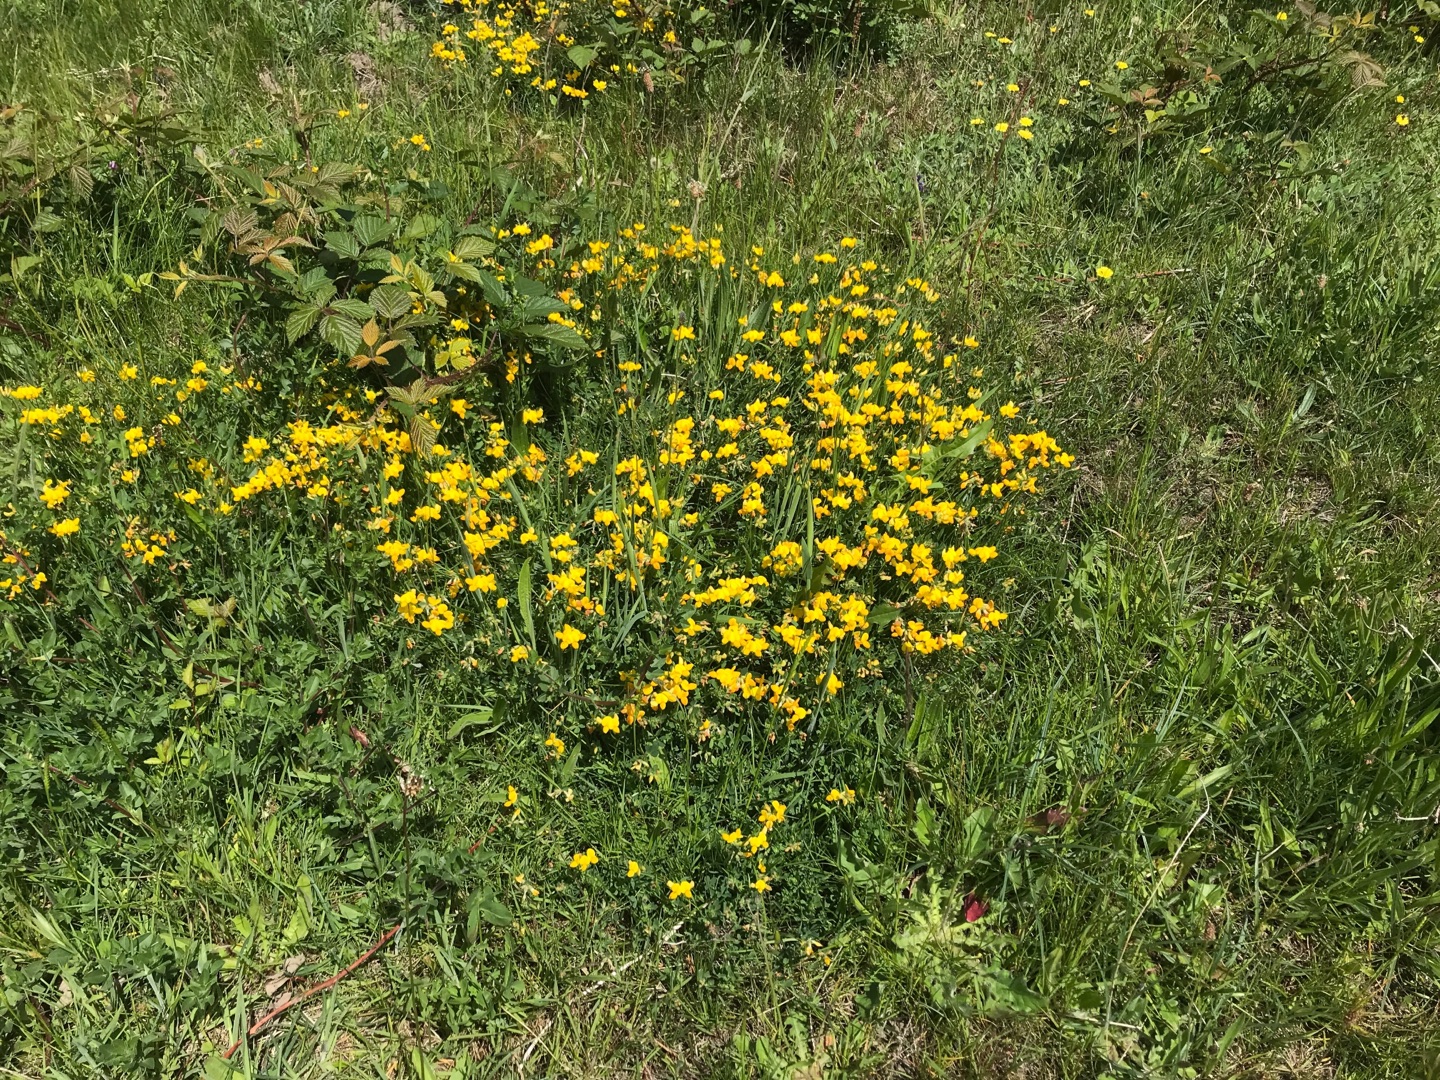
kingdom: Plantae
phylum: Tracheophyta
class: Magnoliopsida
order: Fabales
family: Fabaceae
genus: Lotus
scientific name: Lotus corniculatus
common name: Almindelig kællingetand
